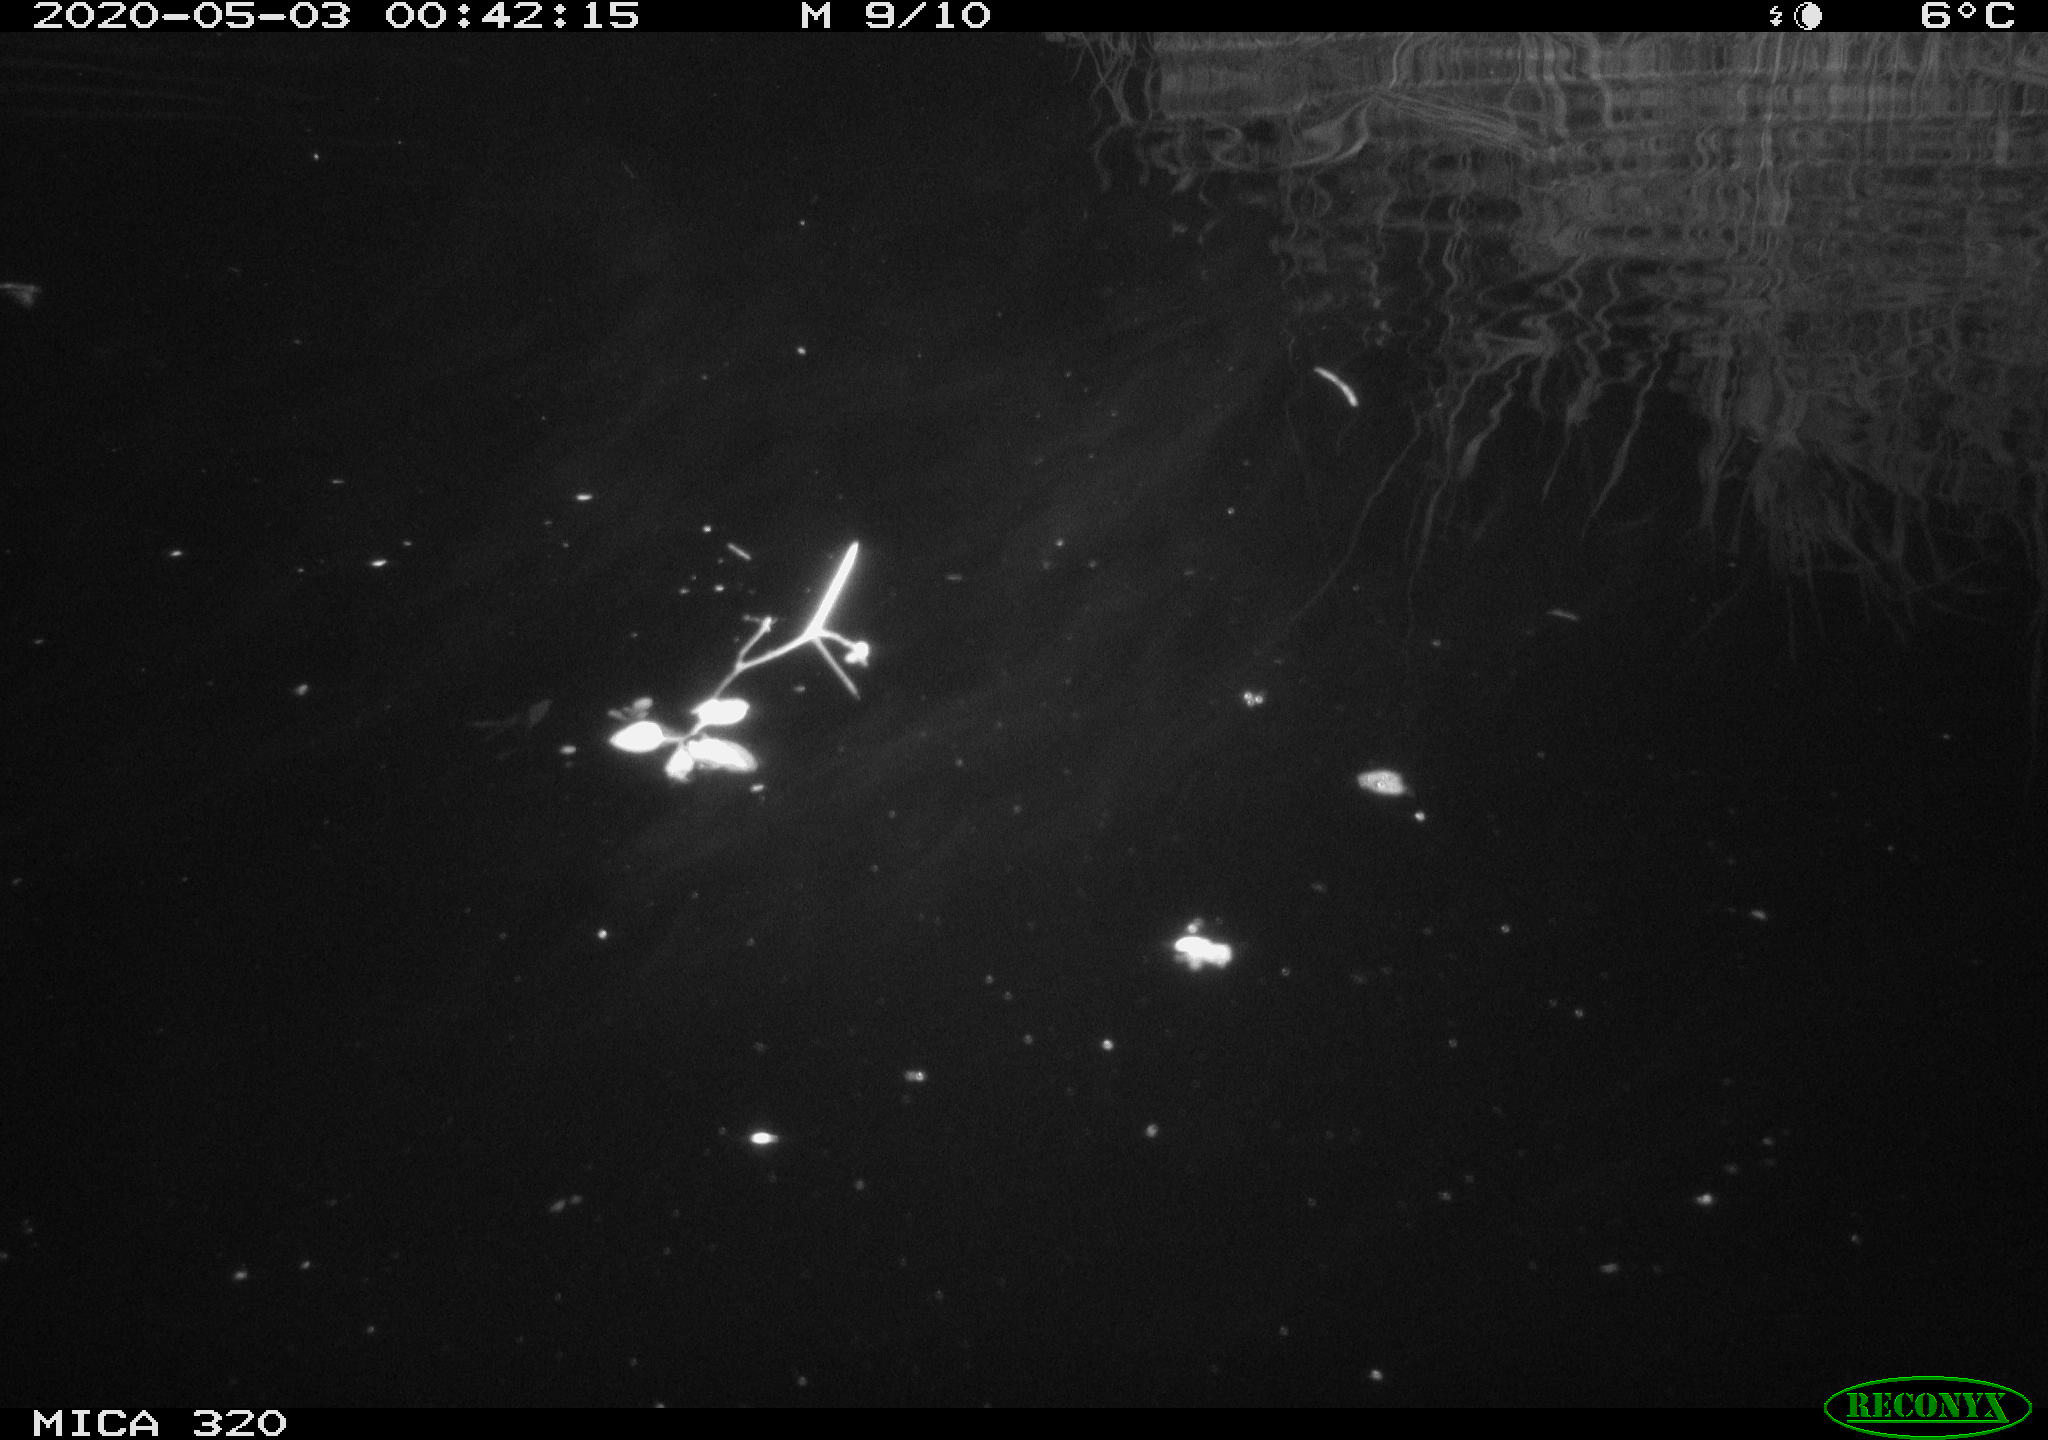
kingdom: Animalia
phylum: Chordata
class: Aves
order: Anseriformes
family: Anatidae
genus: Anas
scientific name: Anas platyrhynchos
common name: Mallard
